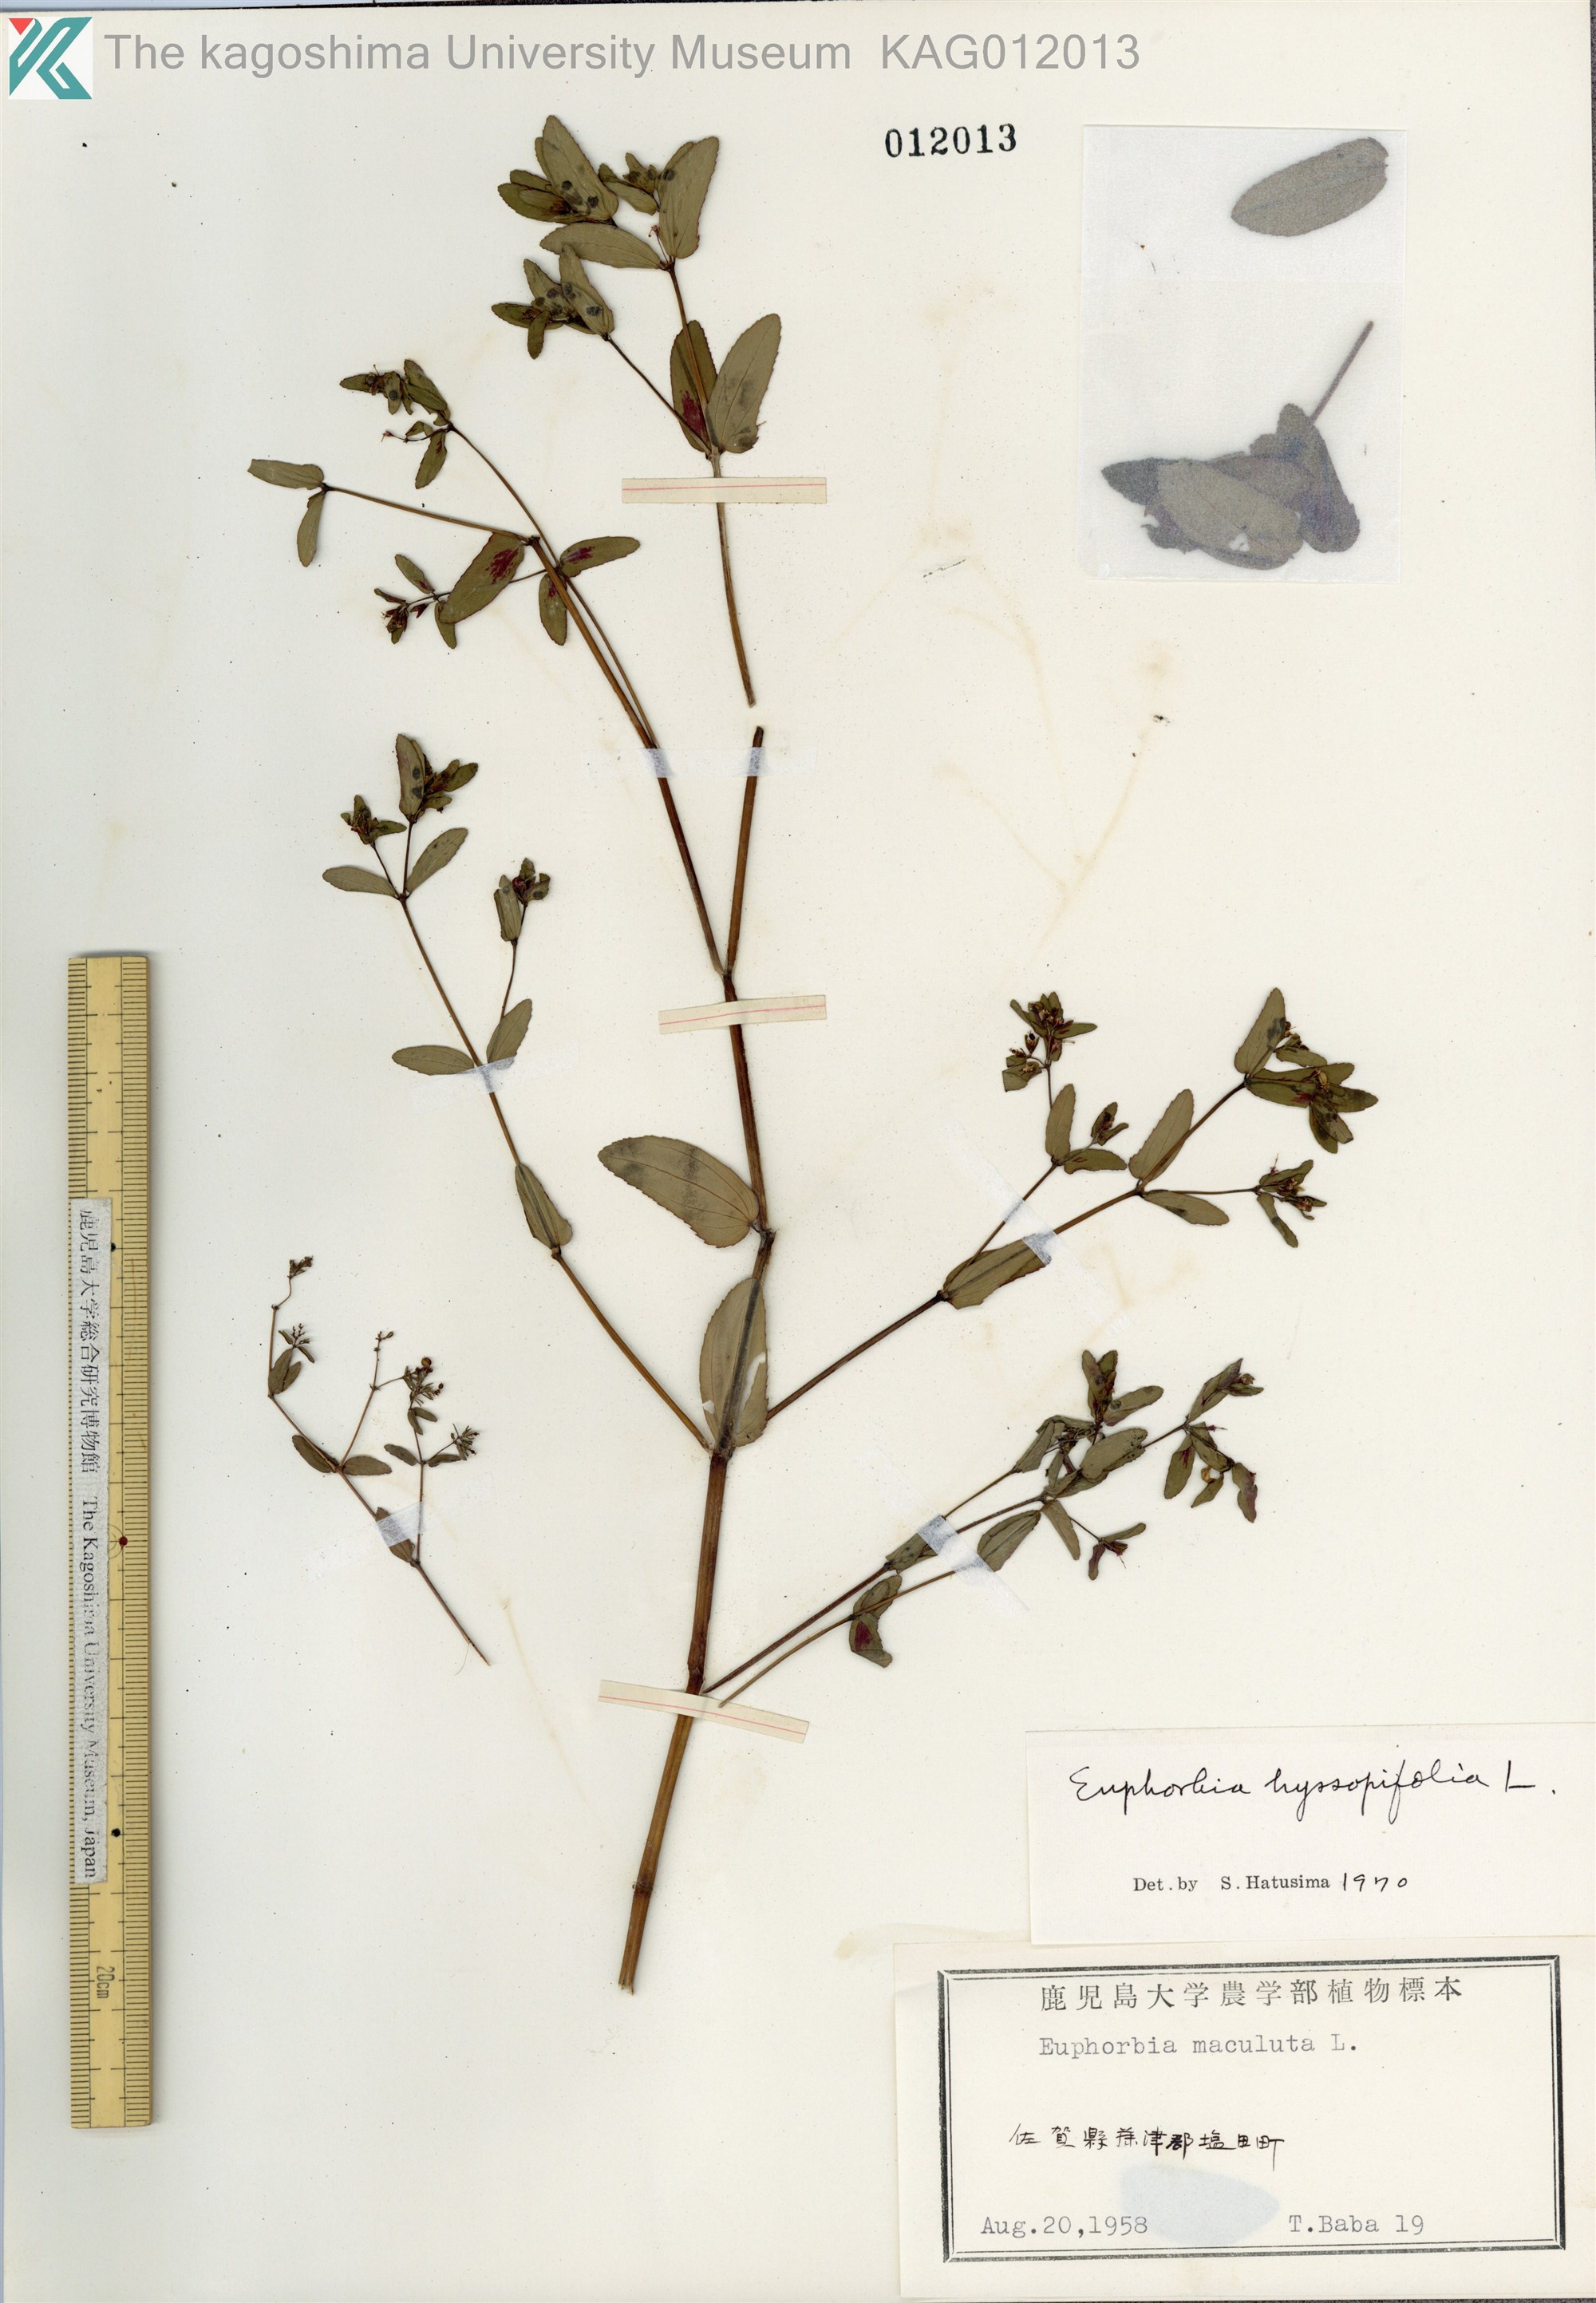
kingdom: Plantae
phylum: Tracheophyta
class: Magnoliopsida
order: Malpighiales
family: Euphorbiaceae
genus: Euphorbia
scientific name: Euphorbia hyssopifolia
